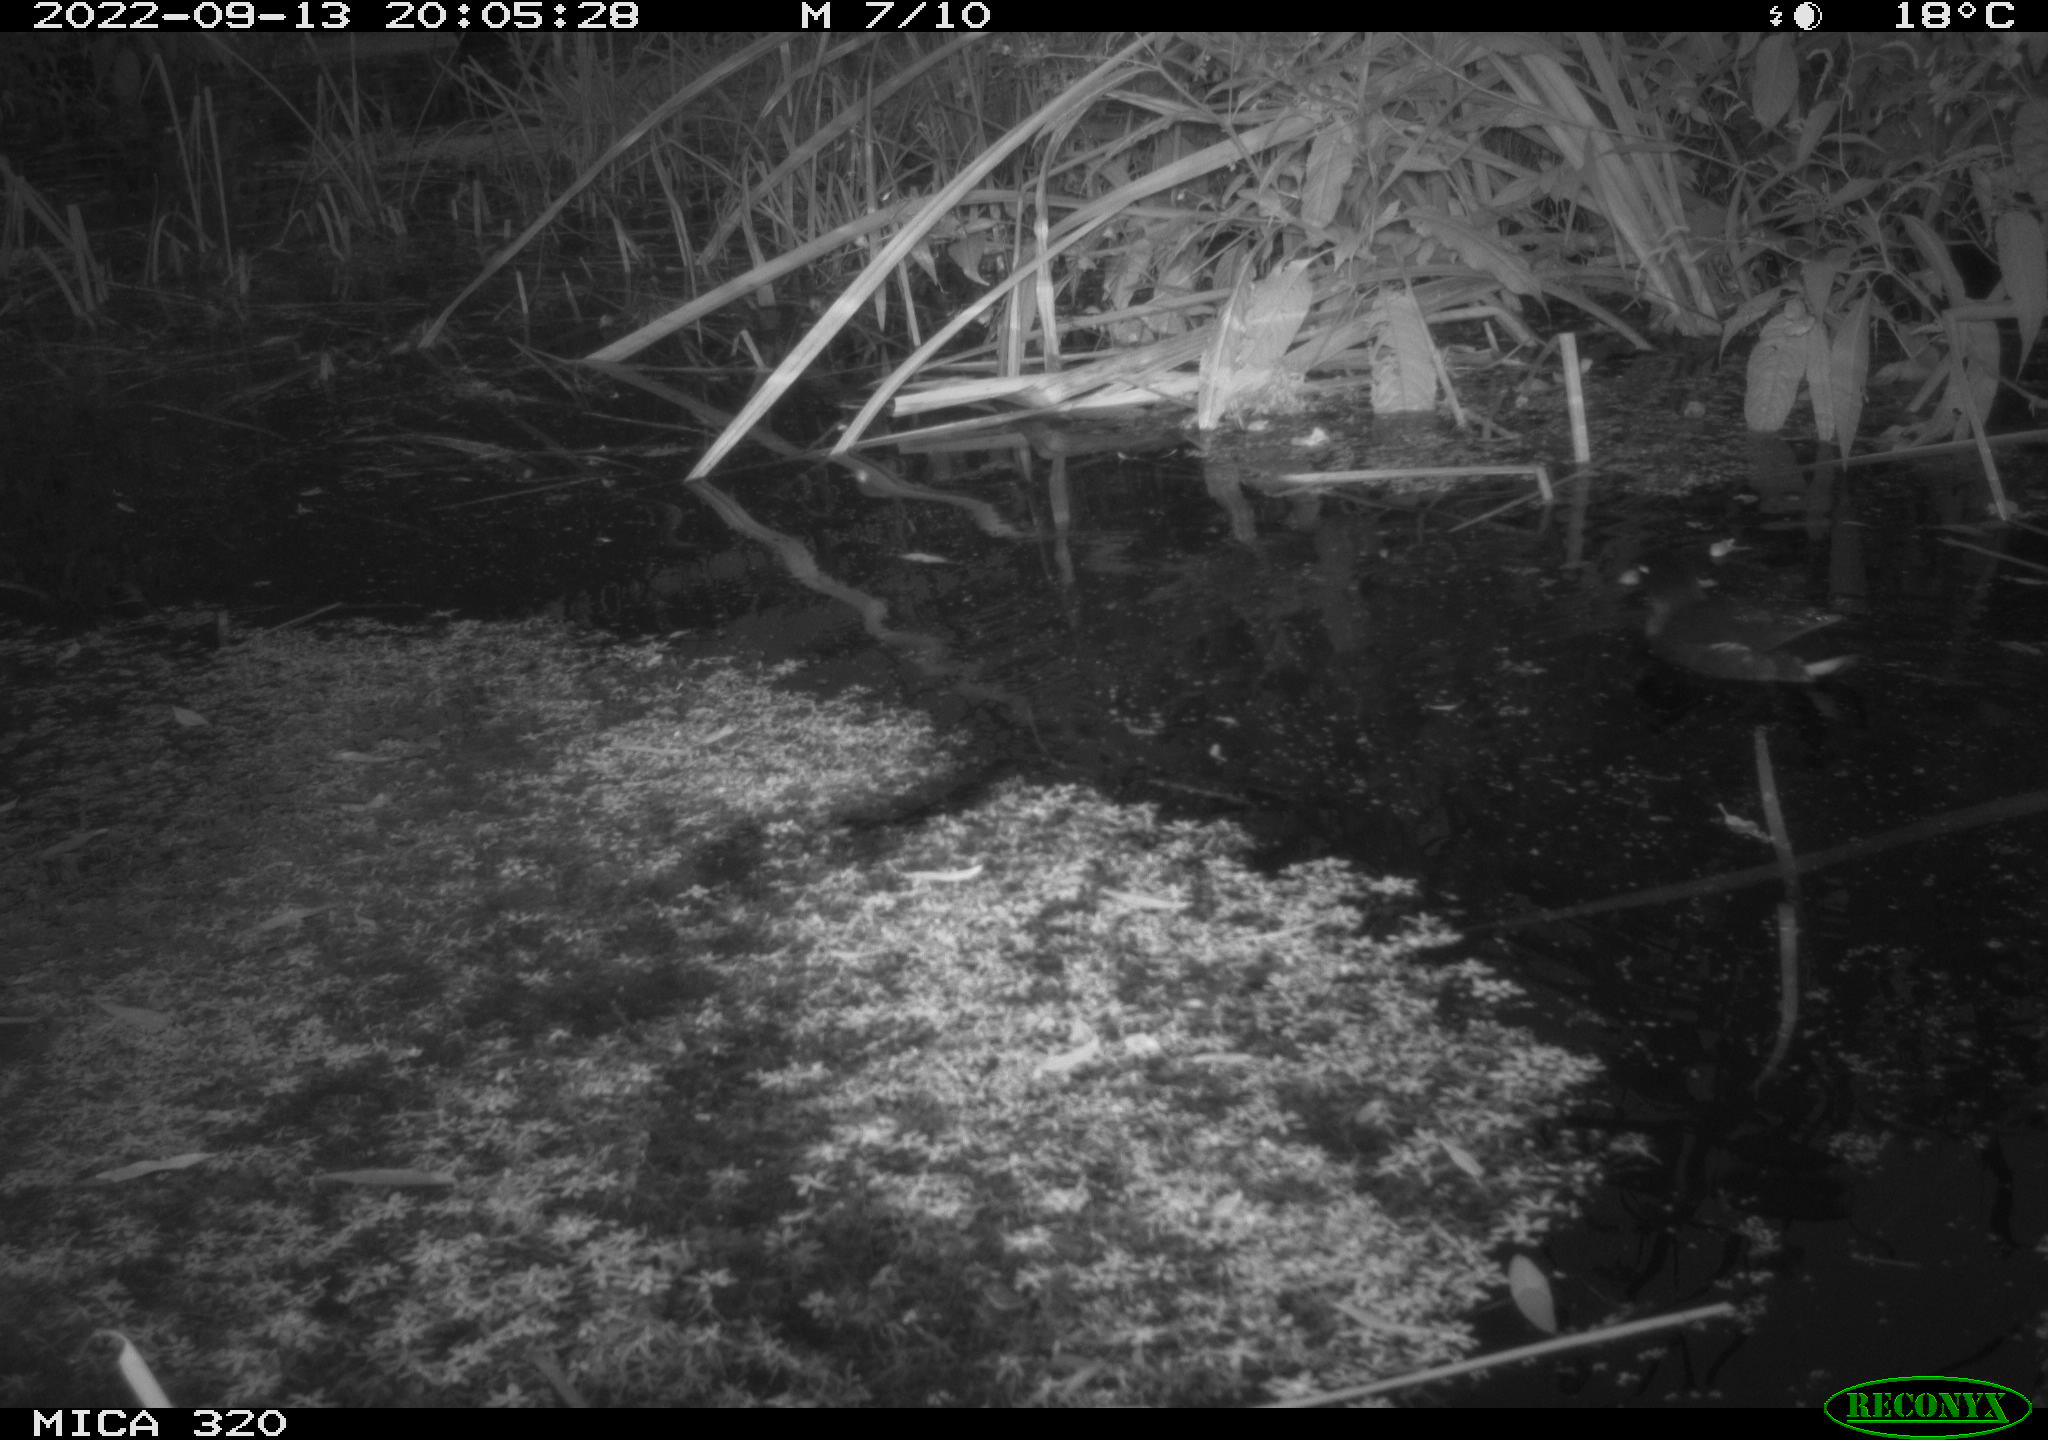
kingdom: Animalia
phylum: Chordata
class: Aves
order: Gruiformes
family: Rallidae
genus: Gallinula
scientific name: Gallinula chloropus
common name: Common moorhen
